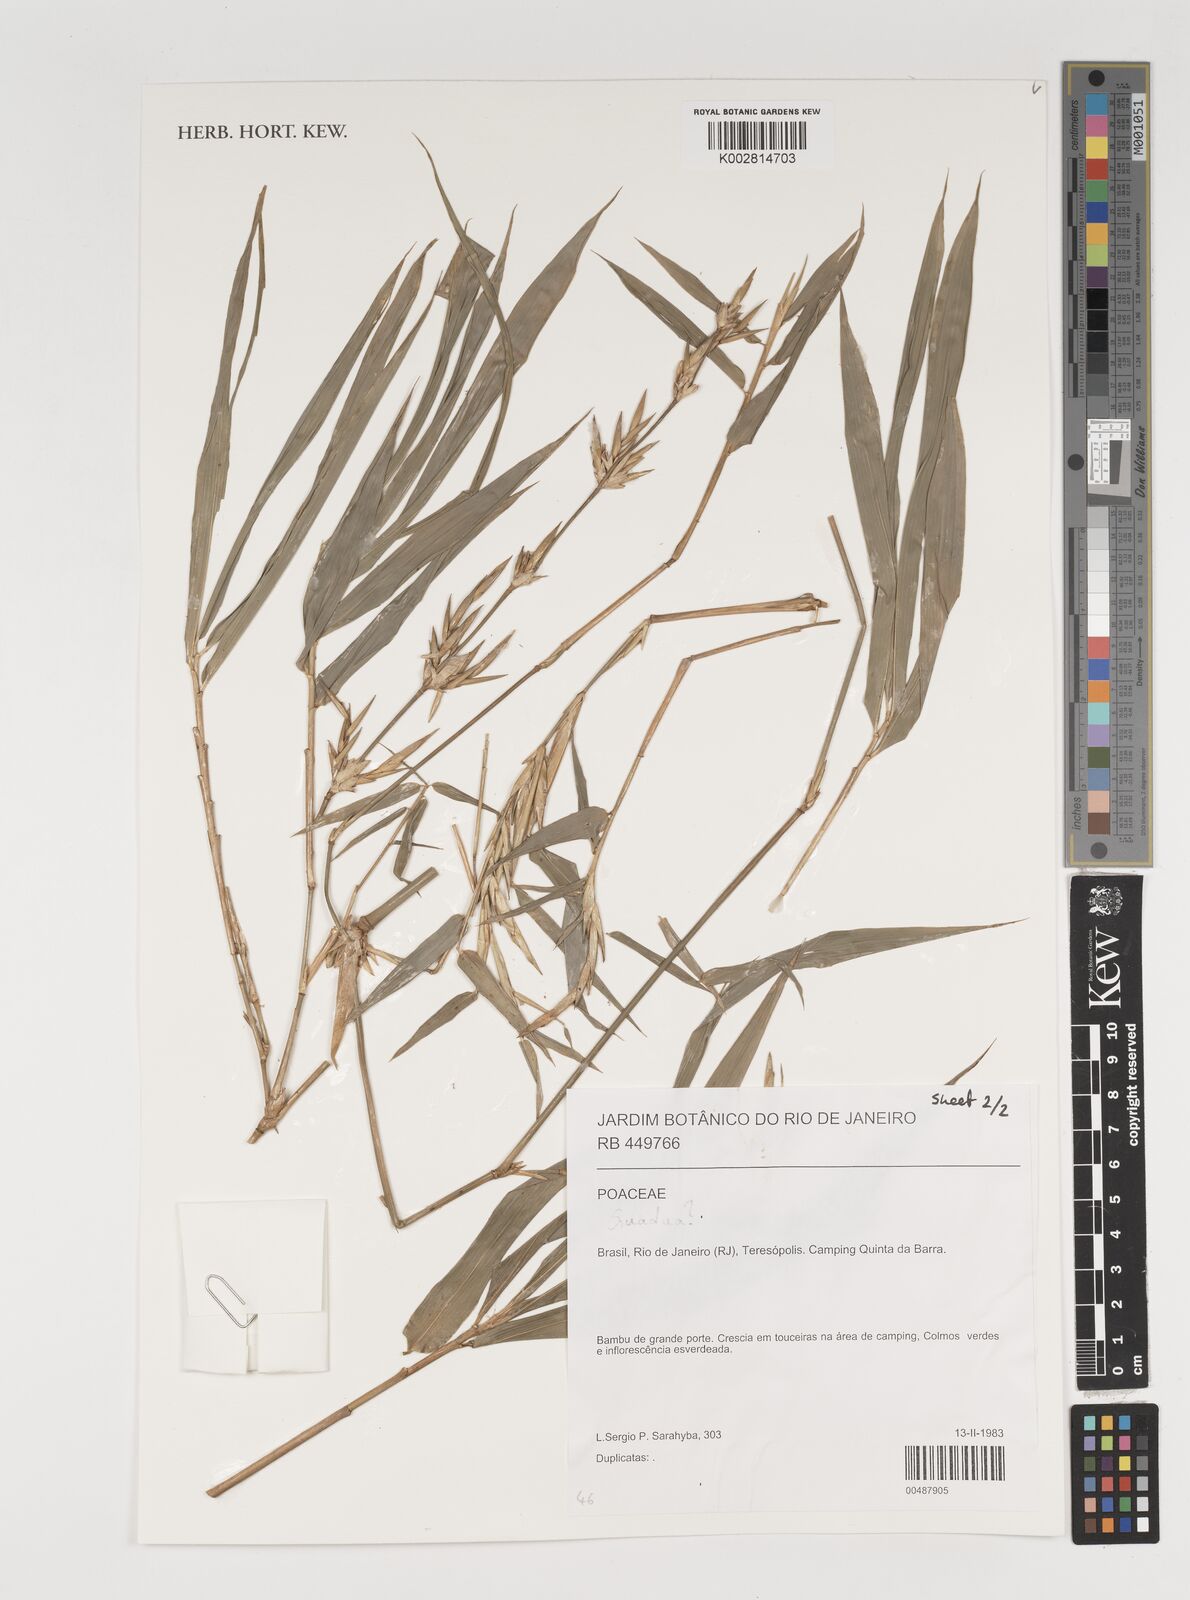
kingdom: Plantae
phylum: Tracheophyta
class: Liliopsida
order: Poales
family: Poaceae
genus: Guadua
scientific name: Guadua
